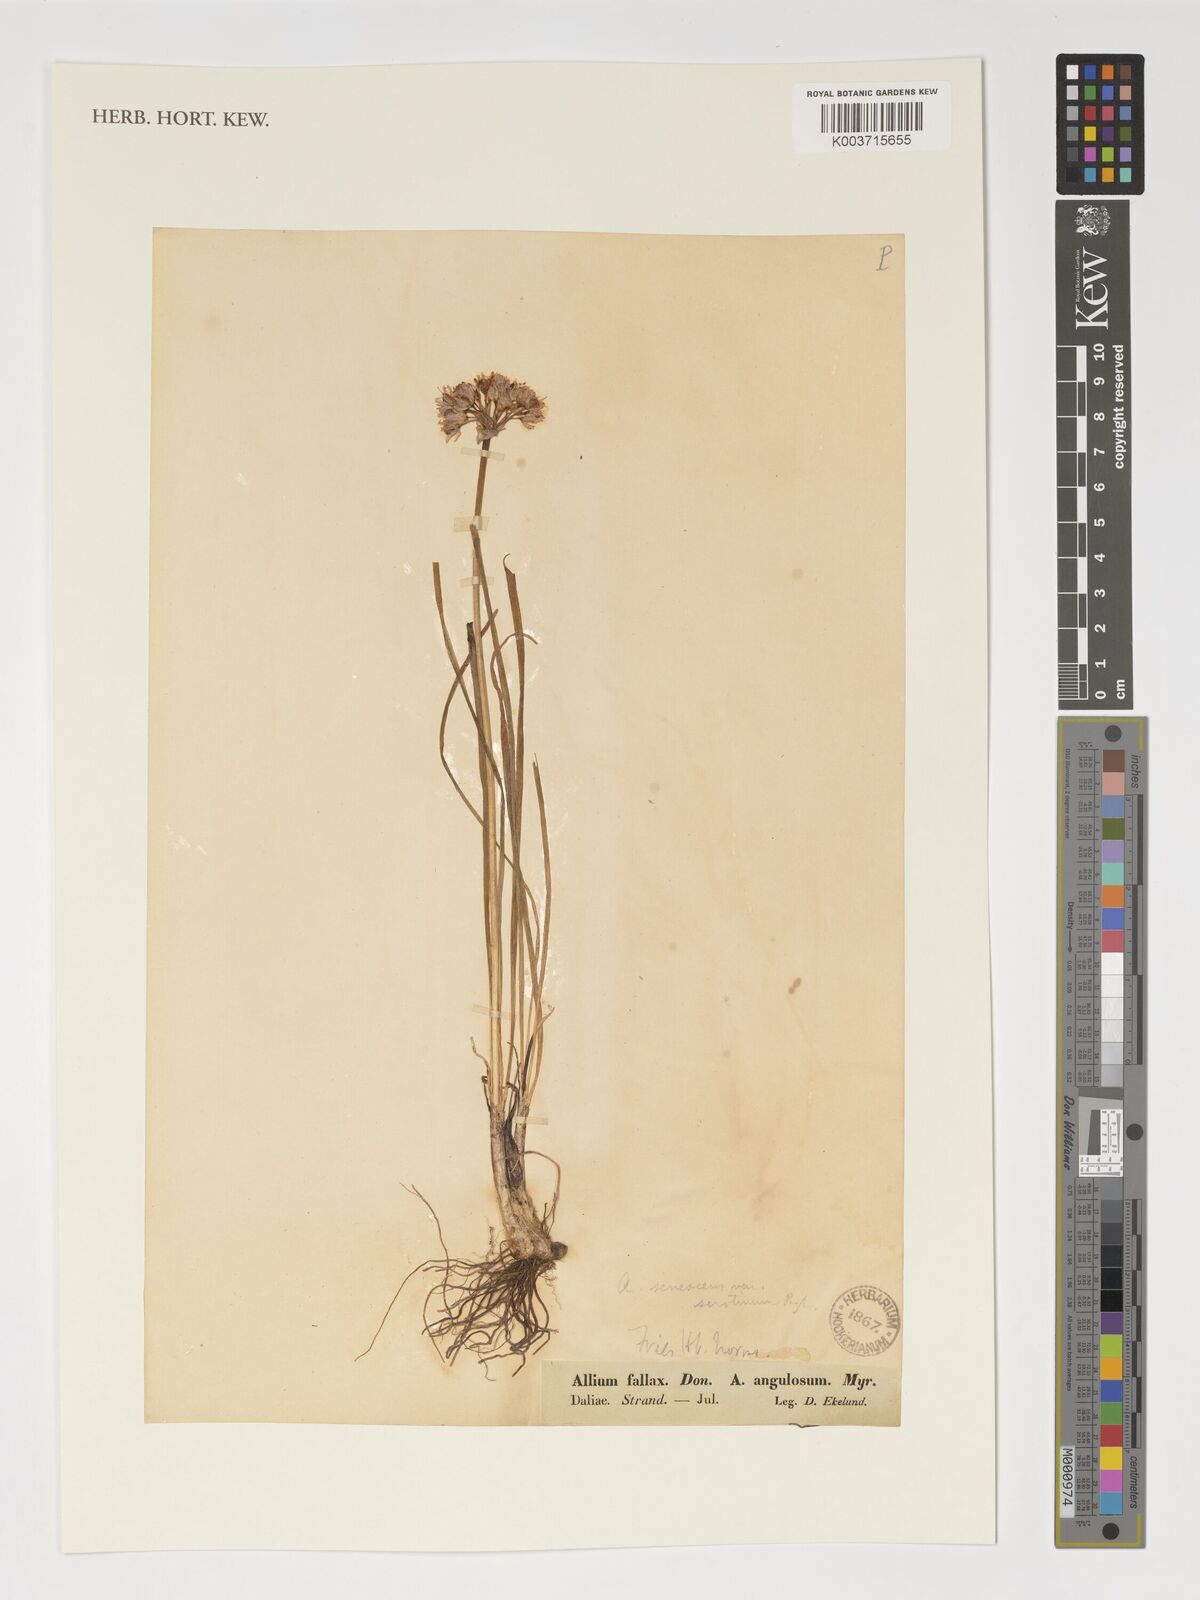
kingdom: Plantae
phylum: Tracheophyta
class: Liliopsida
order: Asparagales
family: Amaryllidaceae
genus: Allium
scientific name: Allium senescens
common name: German garlic
